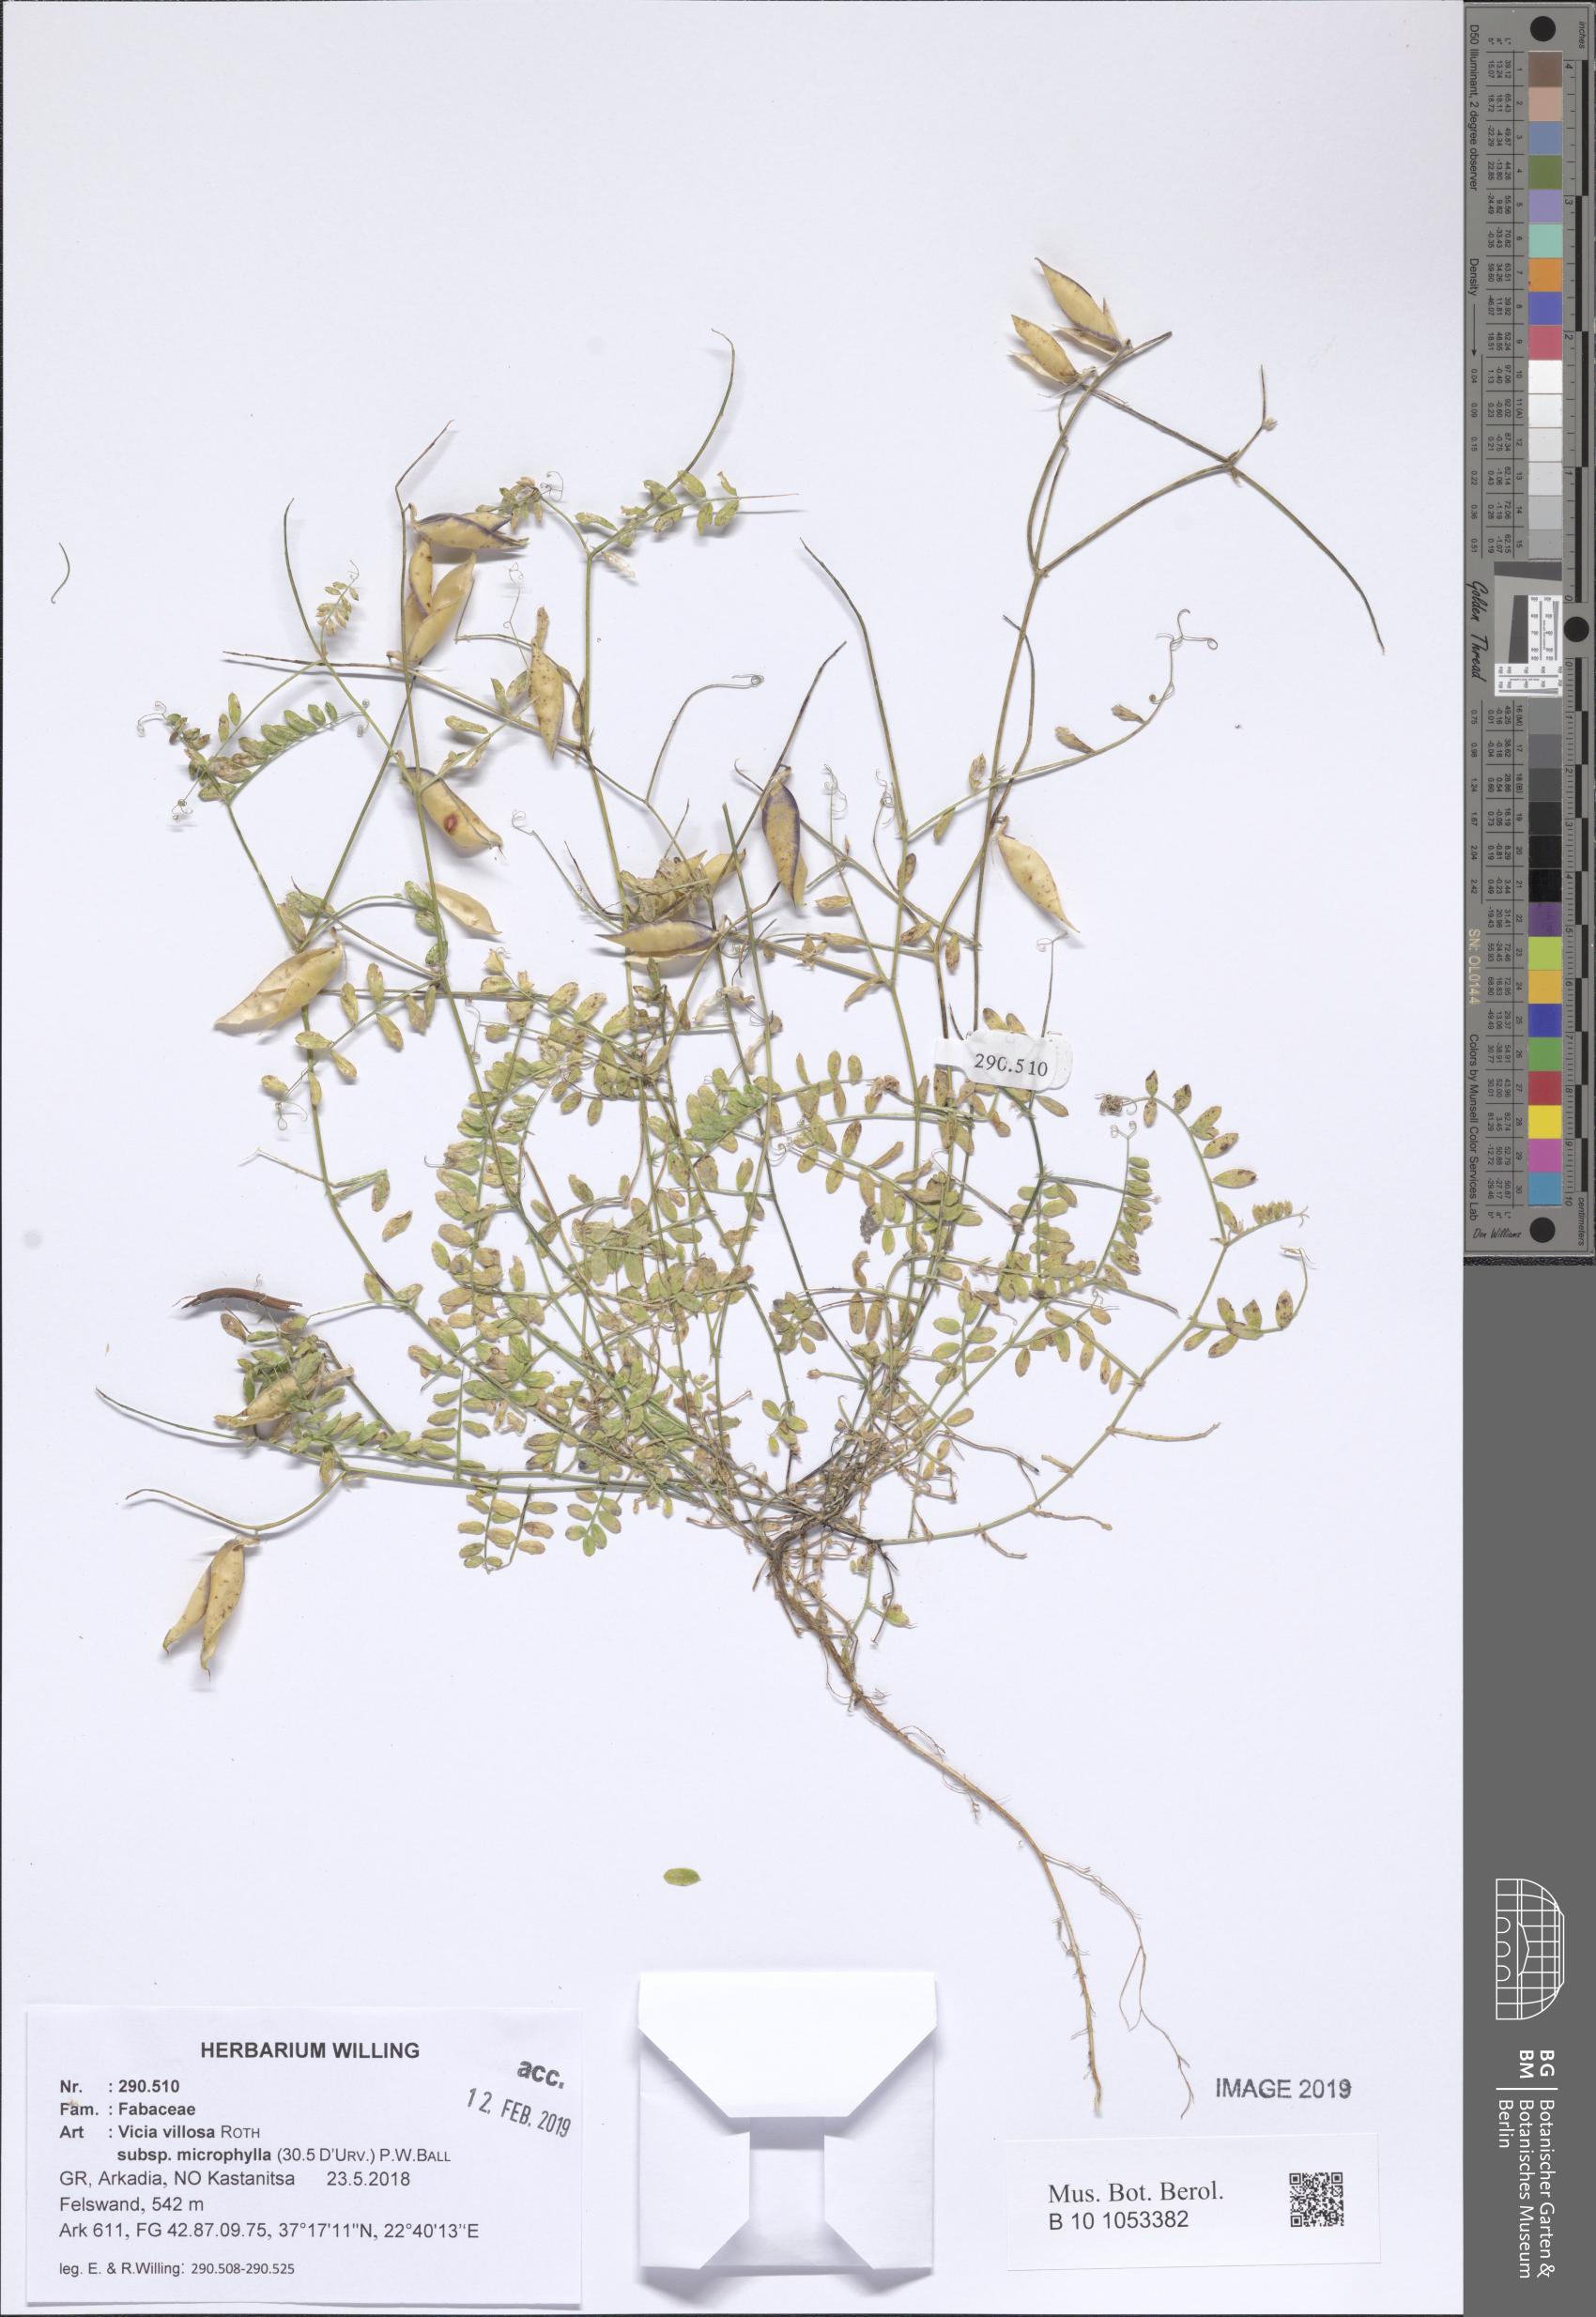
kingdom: Plantae
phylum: Tracheophyta
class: Magnoliopsida
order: Fabales
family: Fabaceae
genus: Vicia
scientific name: Vicia villosa
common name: Fodder vetch
